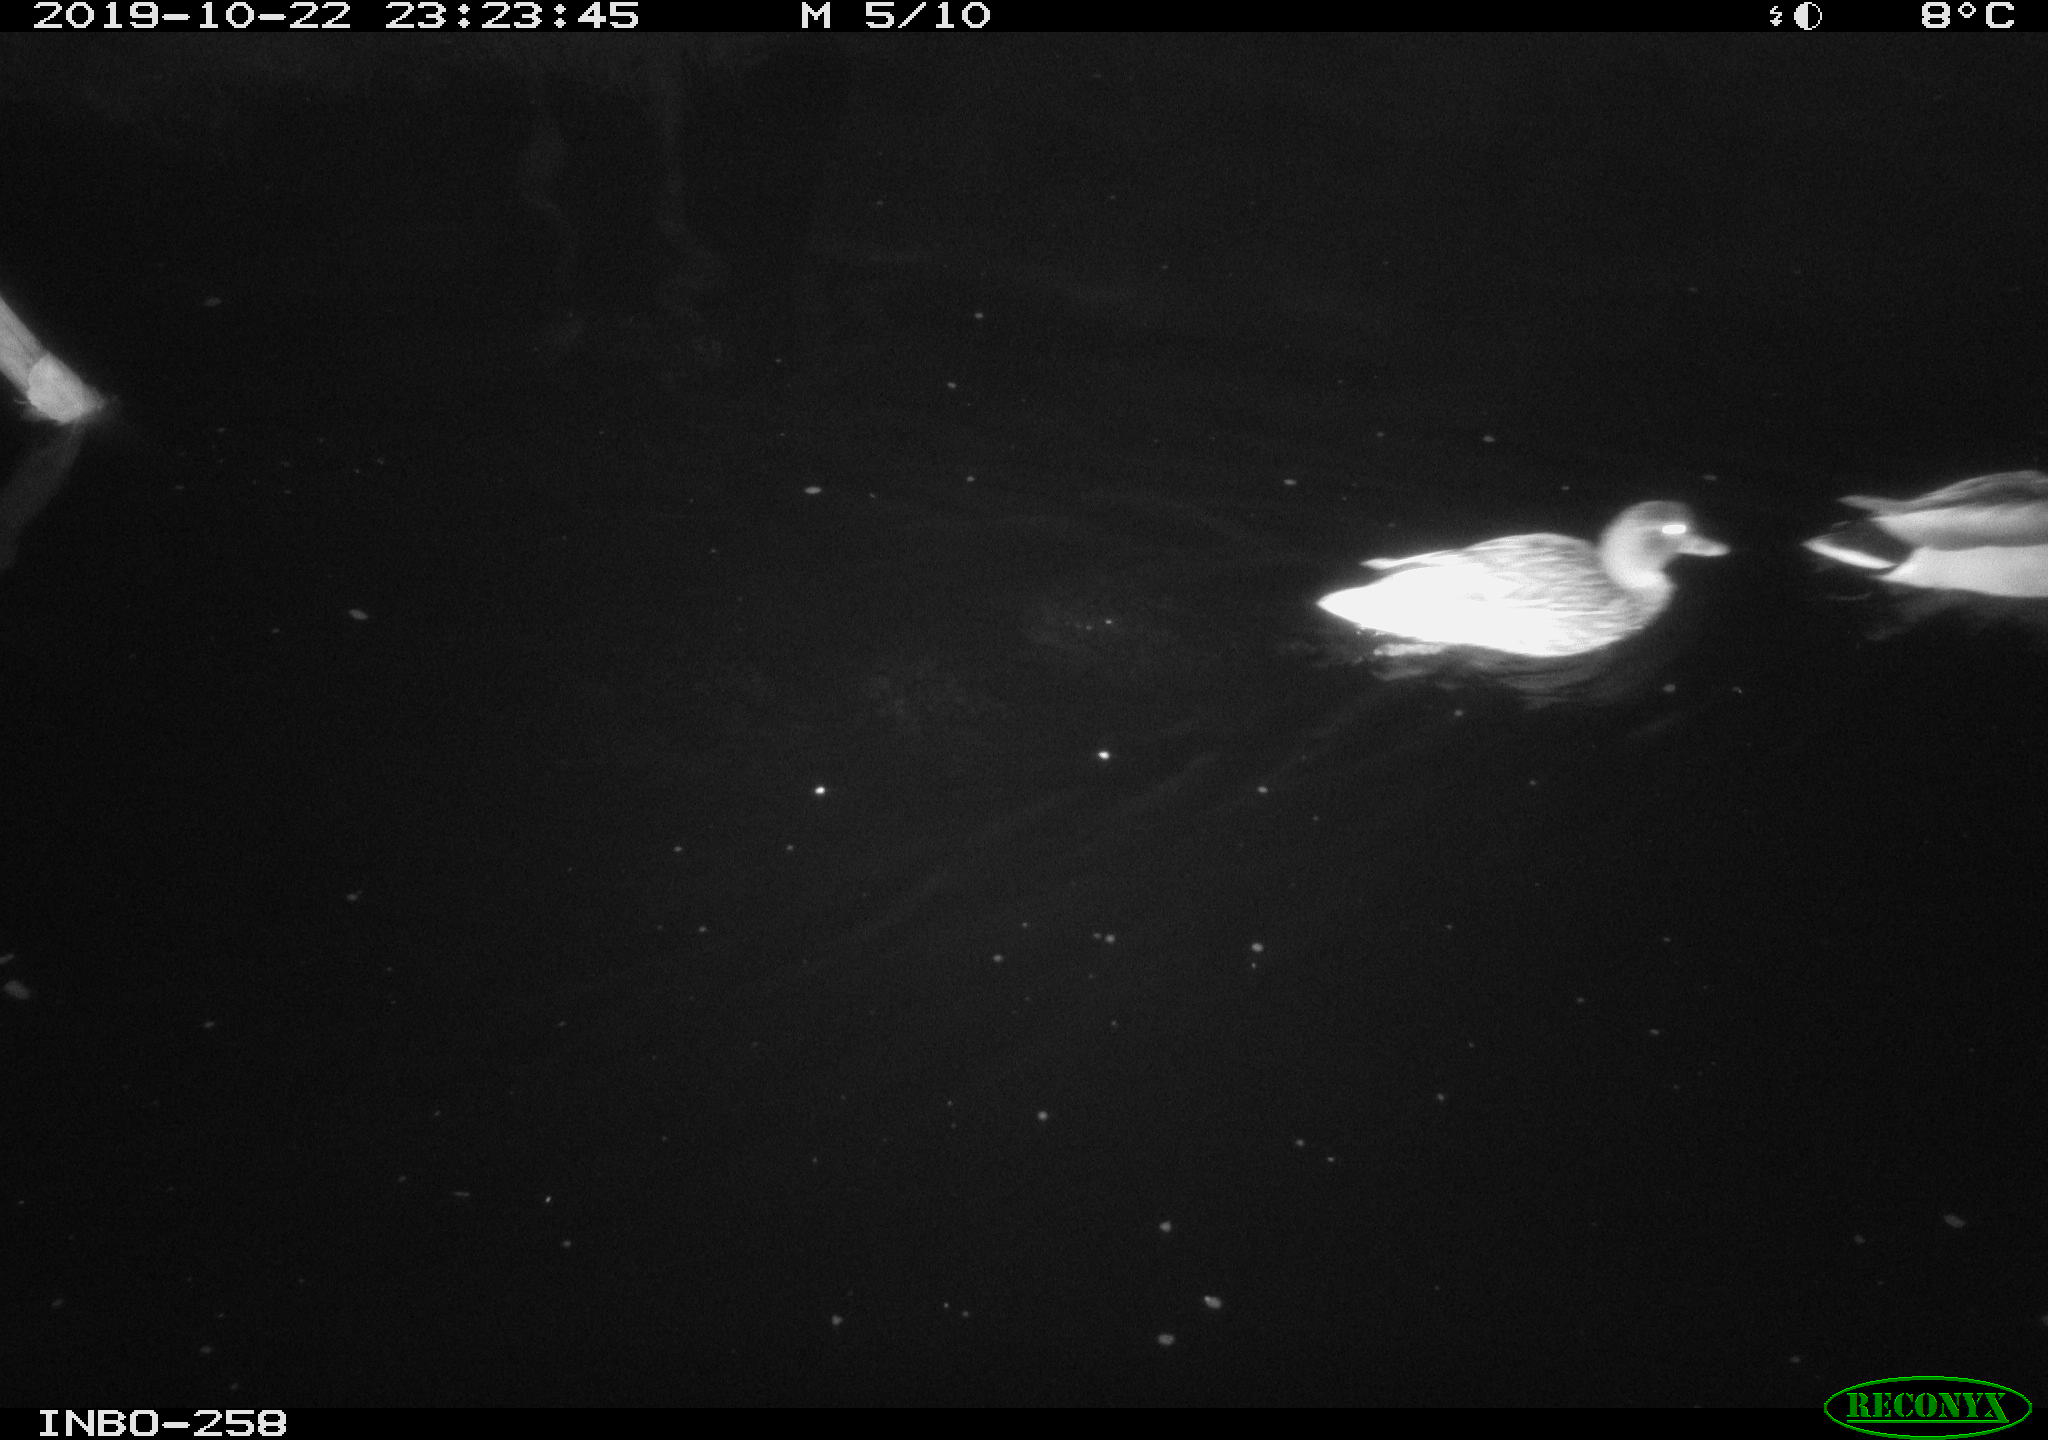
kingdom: Animalia
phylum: Chordata
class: Aves
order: Anseriformes
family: Anatidae
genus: Anas
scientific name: Anas platyrhynchos
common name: Mallard
